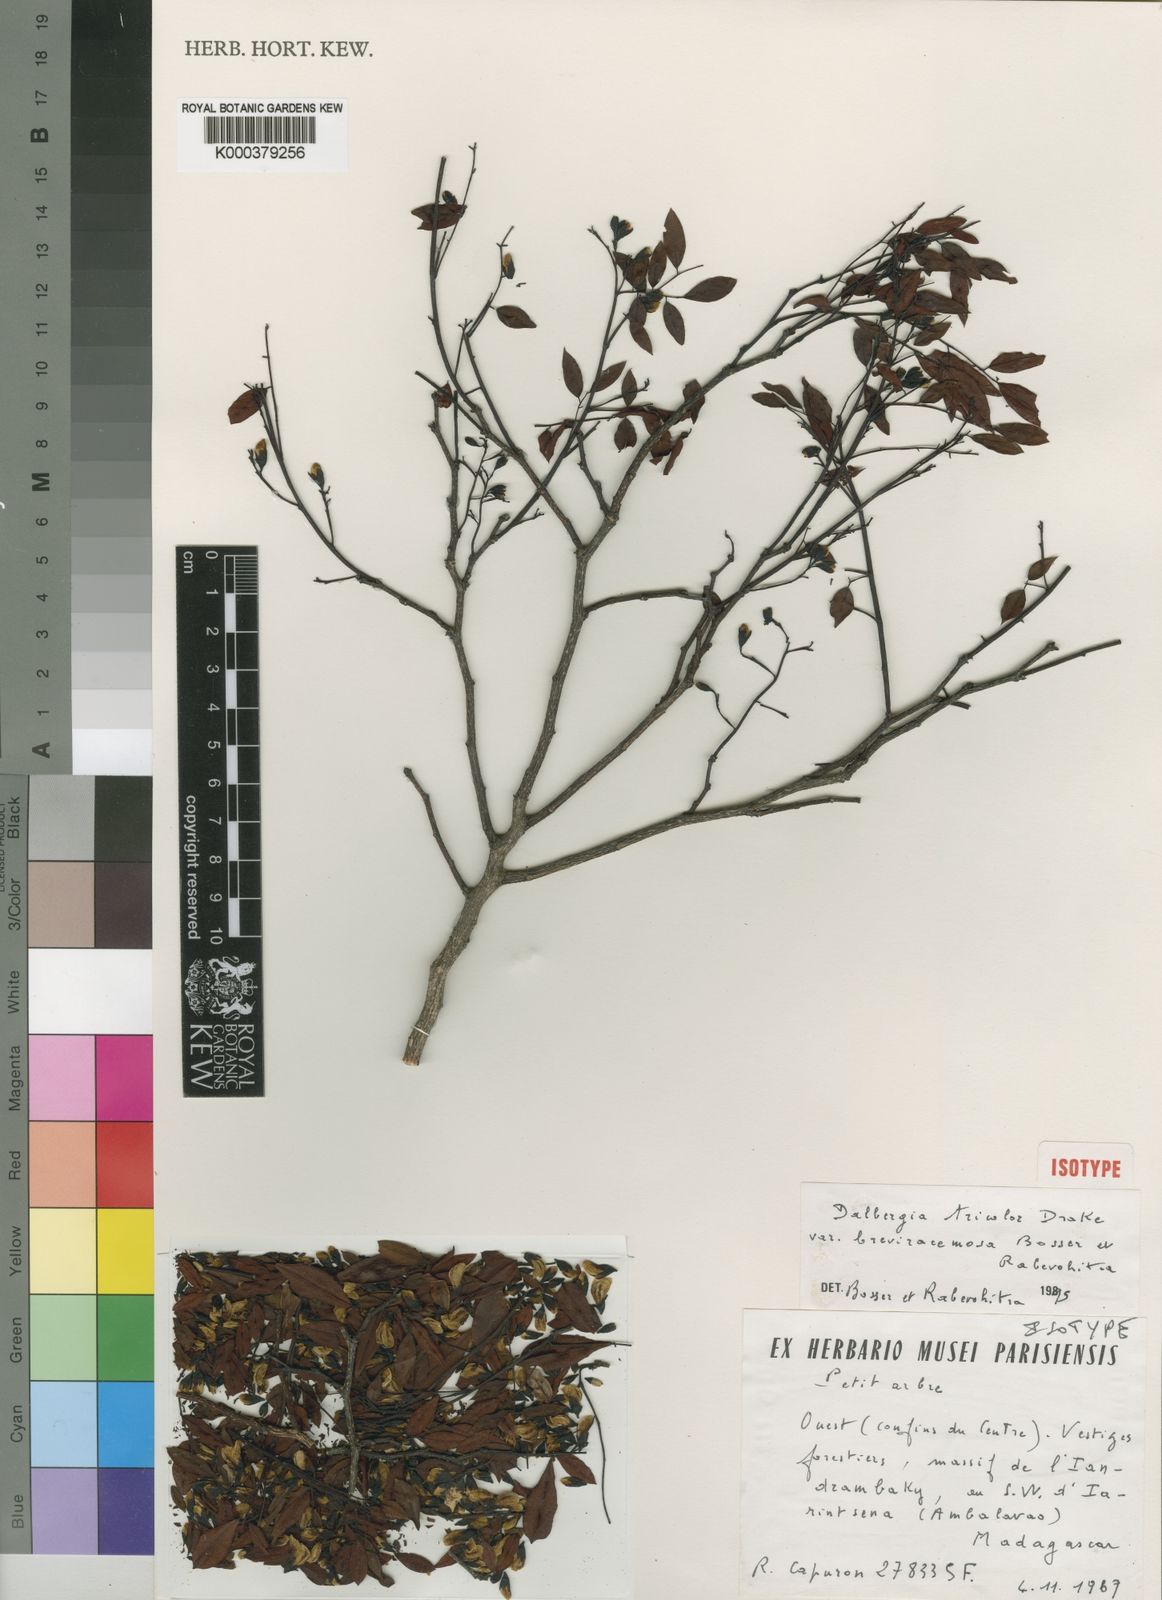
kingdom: Plantae
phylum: Tracheophyta
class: Magnoliopsida
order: Fabales
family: Fabaceae
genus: Dalbergia
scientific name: Dalbergia tricolor
